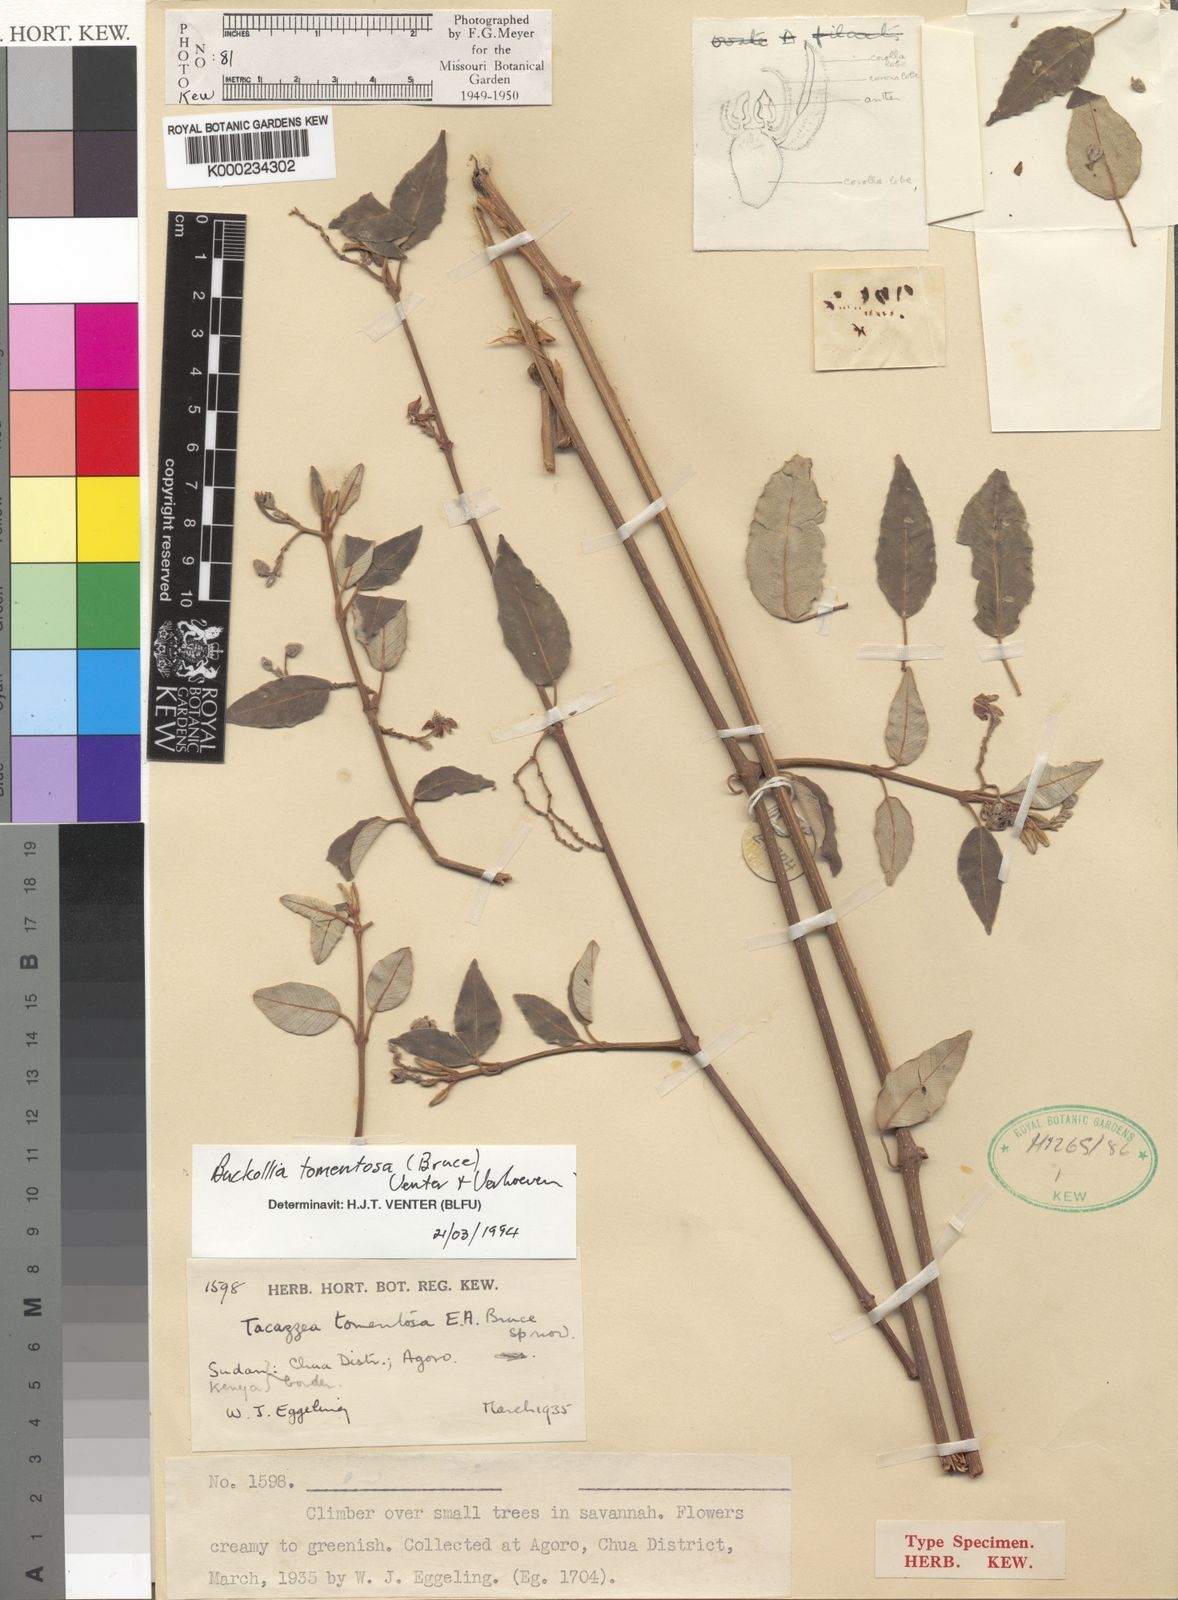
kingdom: Plantae
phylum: Tracheophyta
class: Magnoliopsida
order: Gentianales
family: Apocynaceae
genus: Buckollia
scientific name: Buckollia tomentosa
